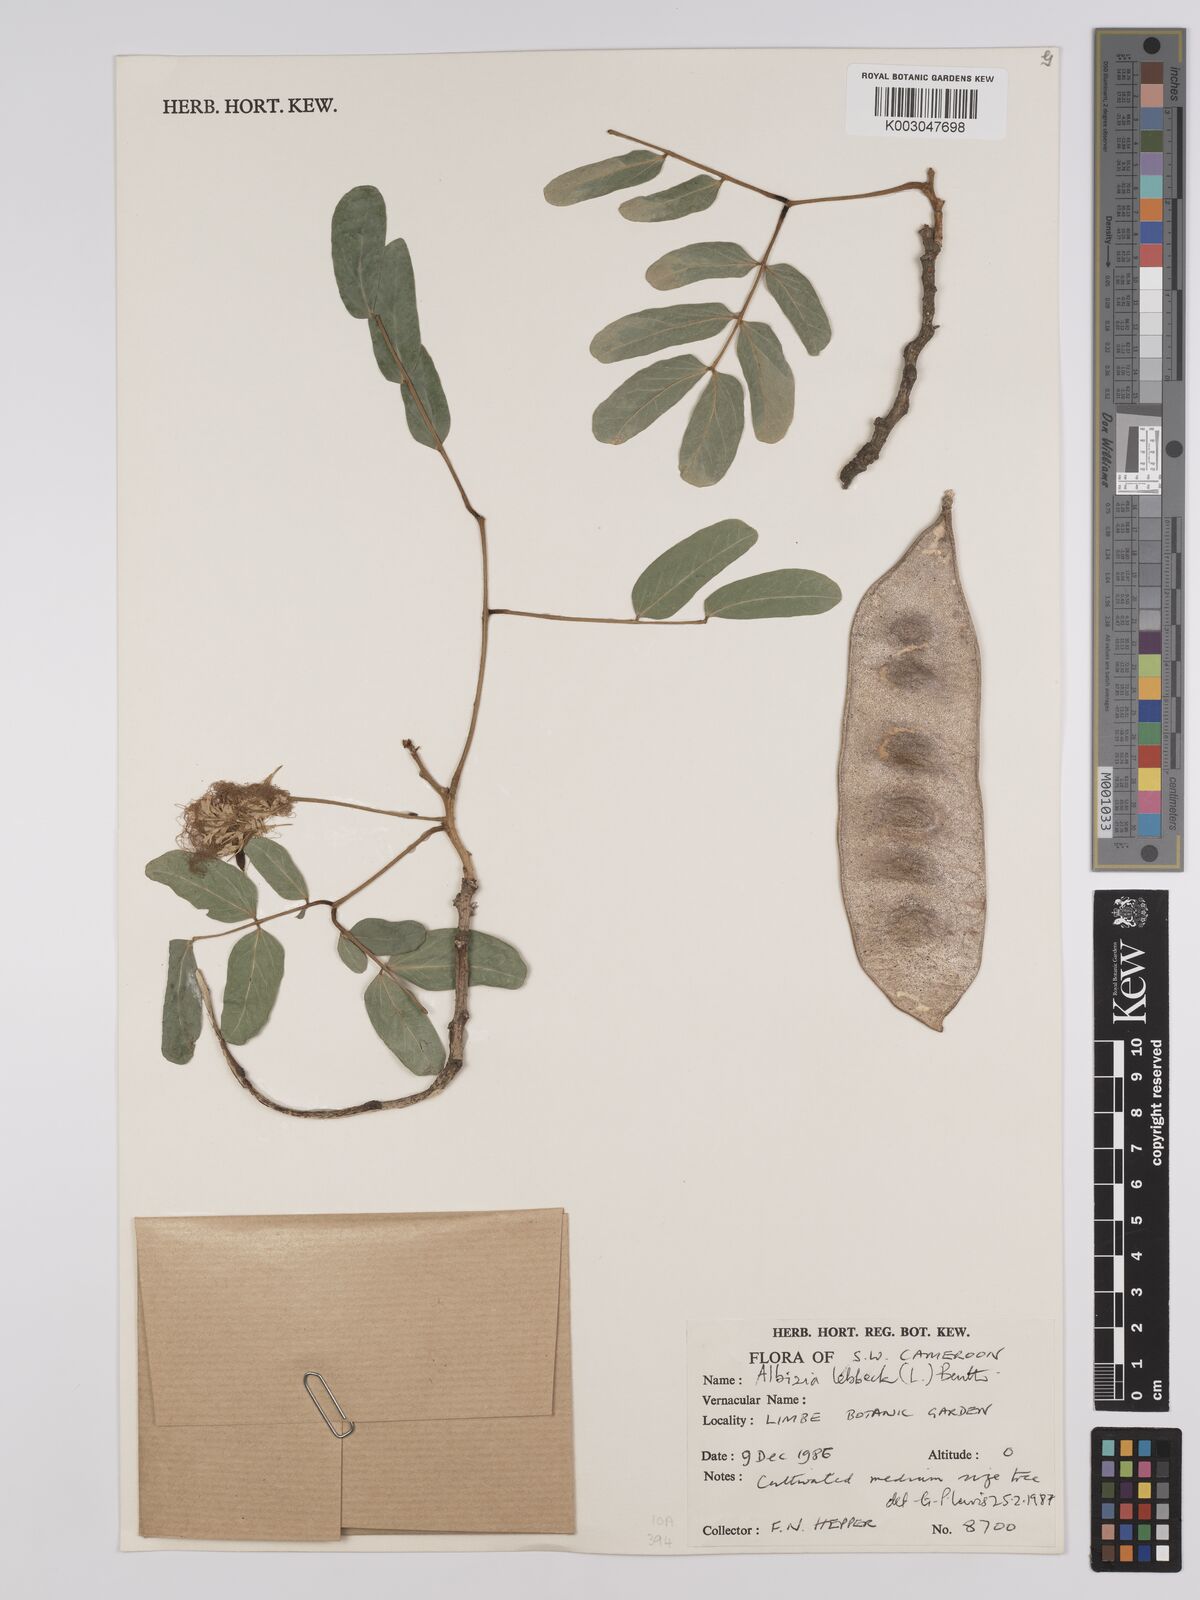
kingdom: Plantae
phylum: Tracheophyta
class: Magnoliopsida
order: Fabales
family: Fabaceae
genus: Albizia
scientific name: Albizia lebbeck
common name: Woman's tongue
